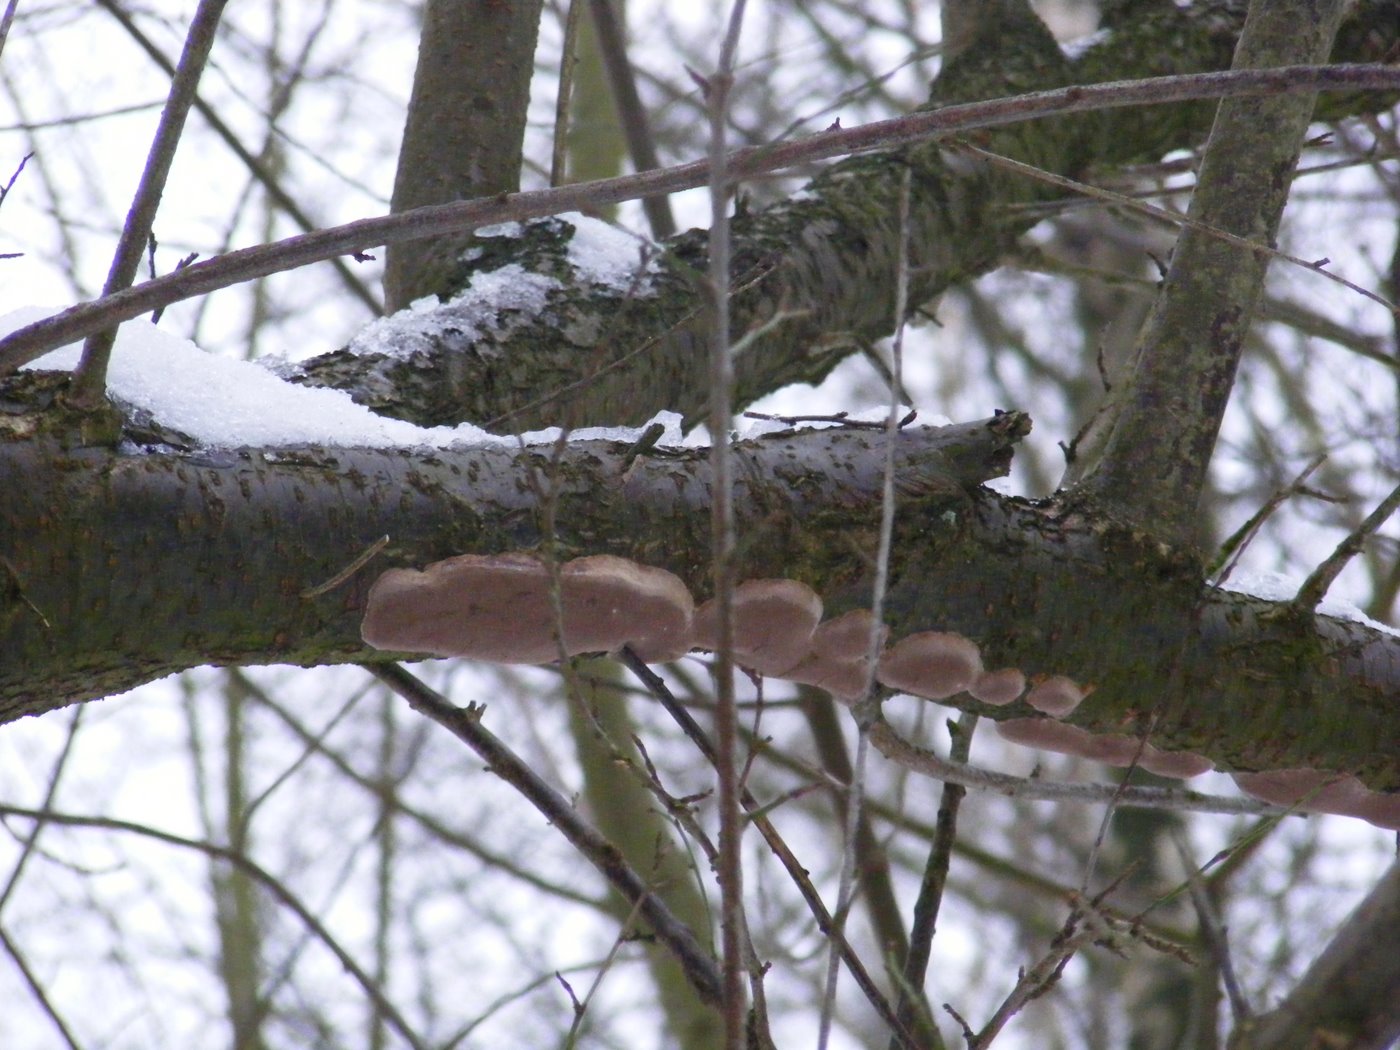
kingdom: Fungi
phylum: Basidiomycota
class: Agaricomycetes
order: Hymenochaetales
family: Hymenochaetaceae
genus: Phellinus
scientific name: Phellinus pomaceus
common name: blomme-ildporesvamp
